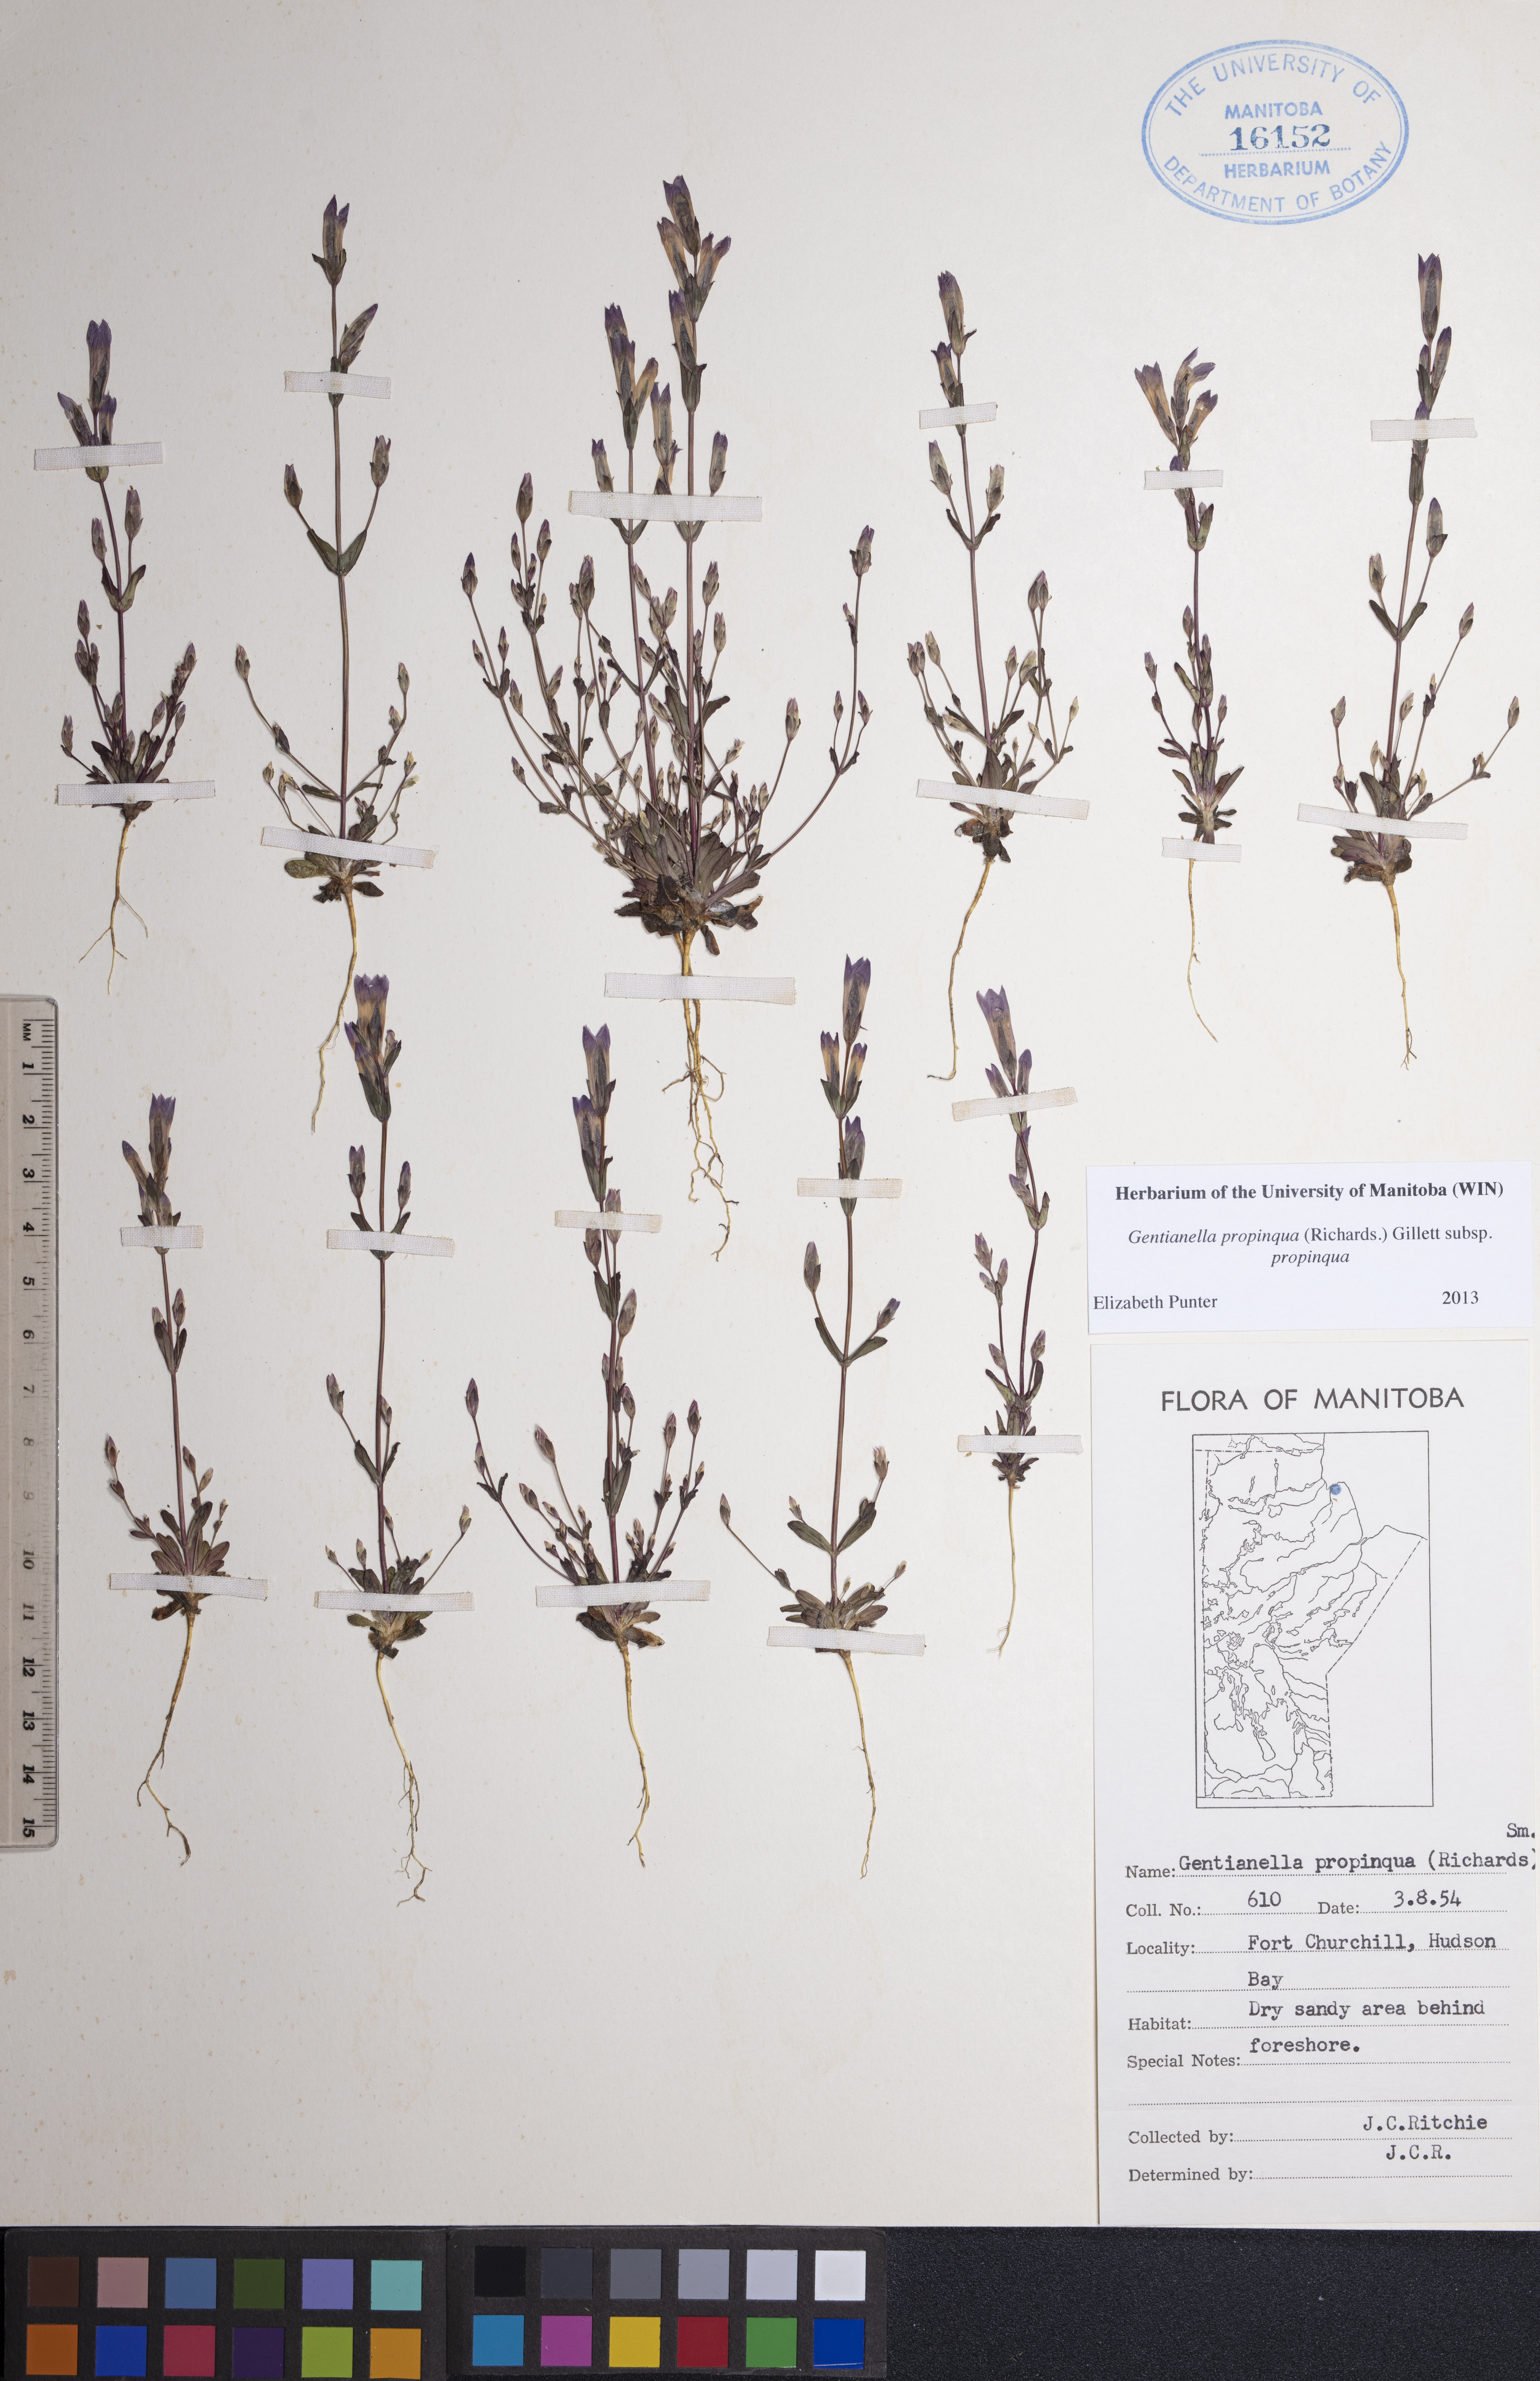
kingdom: Plantae
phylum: Tracheophyta
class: Magnoliopsida
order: Gentianales
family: Gentianaceae
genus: Gentianella
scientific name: Gentianella propinqua
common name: Four-parted dwarf-gentian
